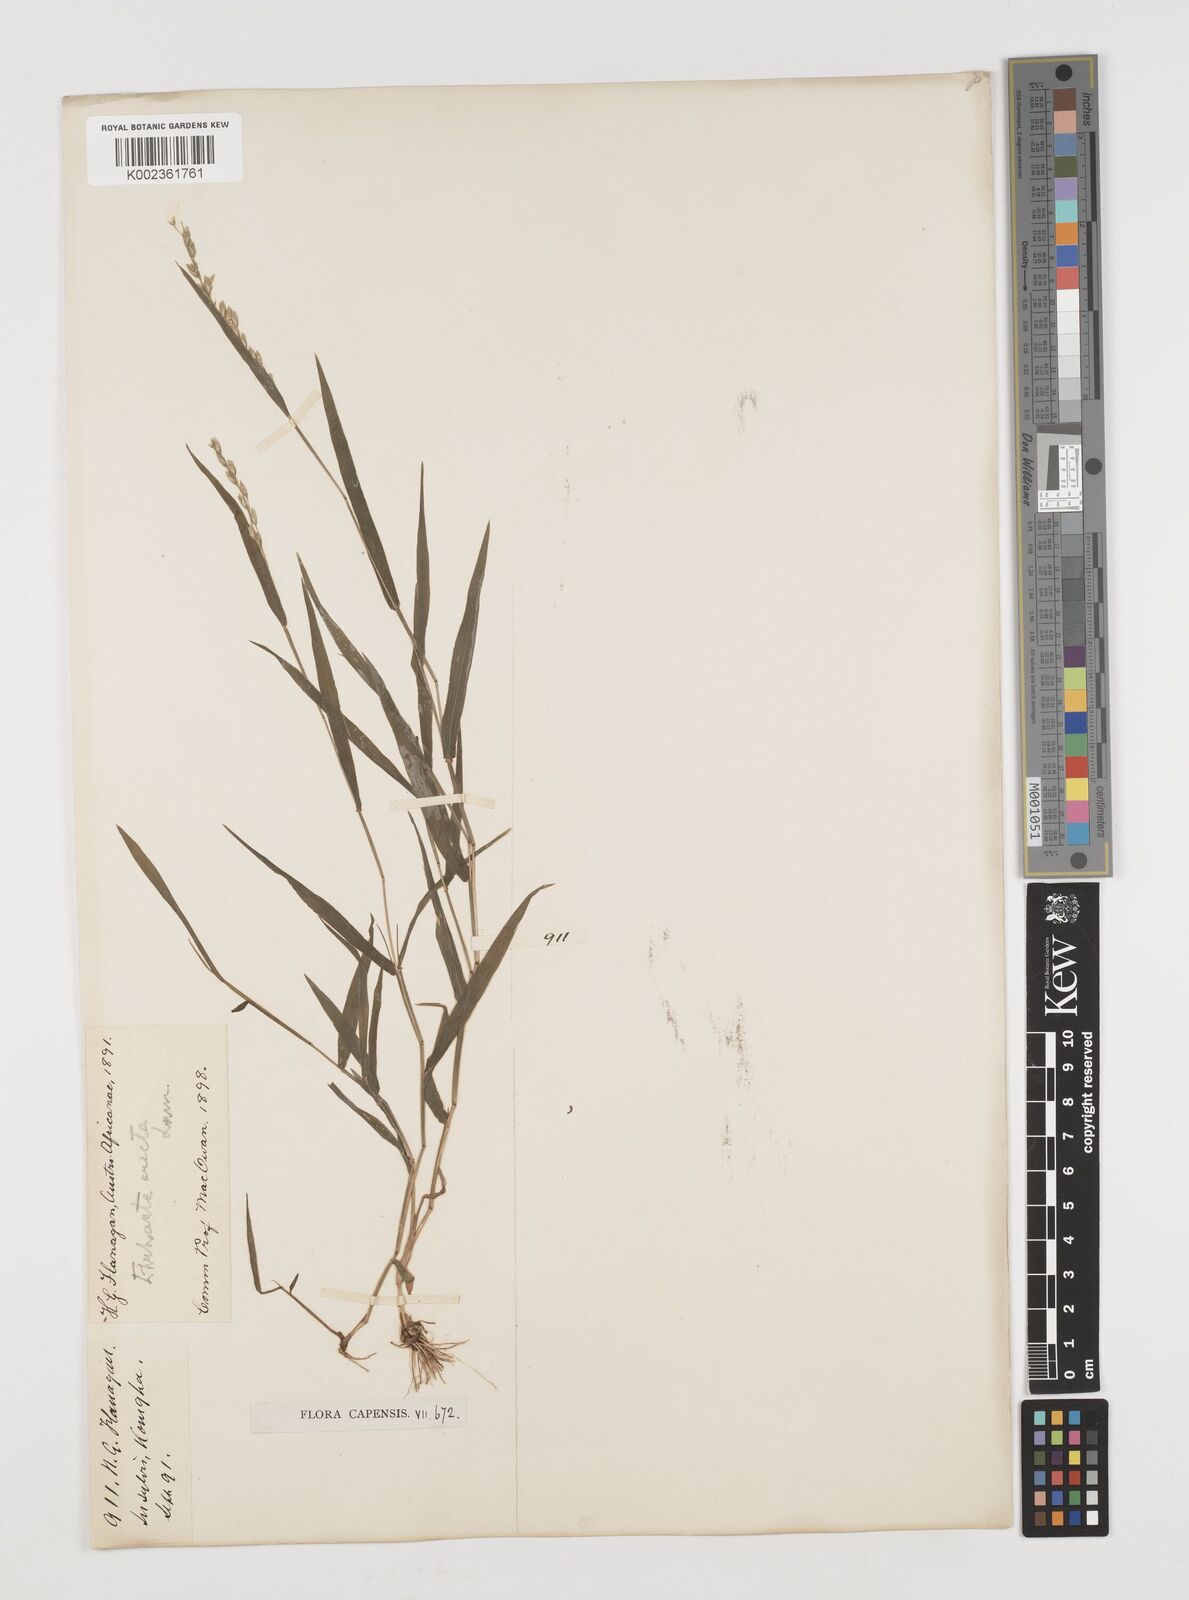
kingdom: Plantae
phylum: Tracheophyta
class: Liliopsida
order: Poales
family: Poaceae
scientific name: Poaceae
